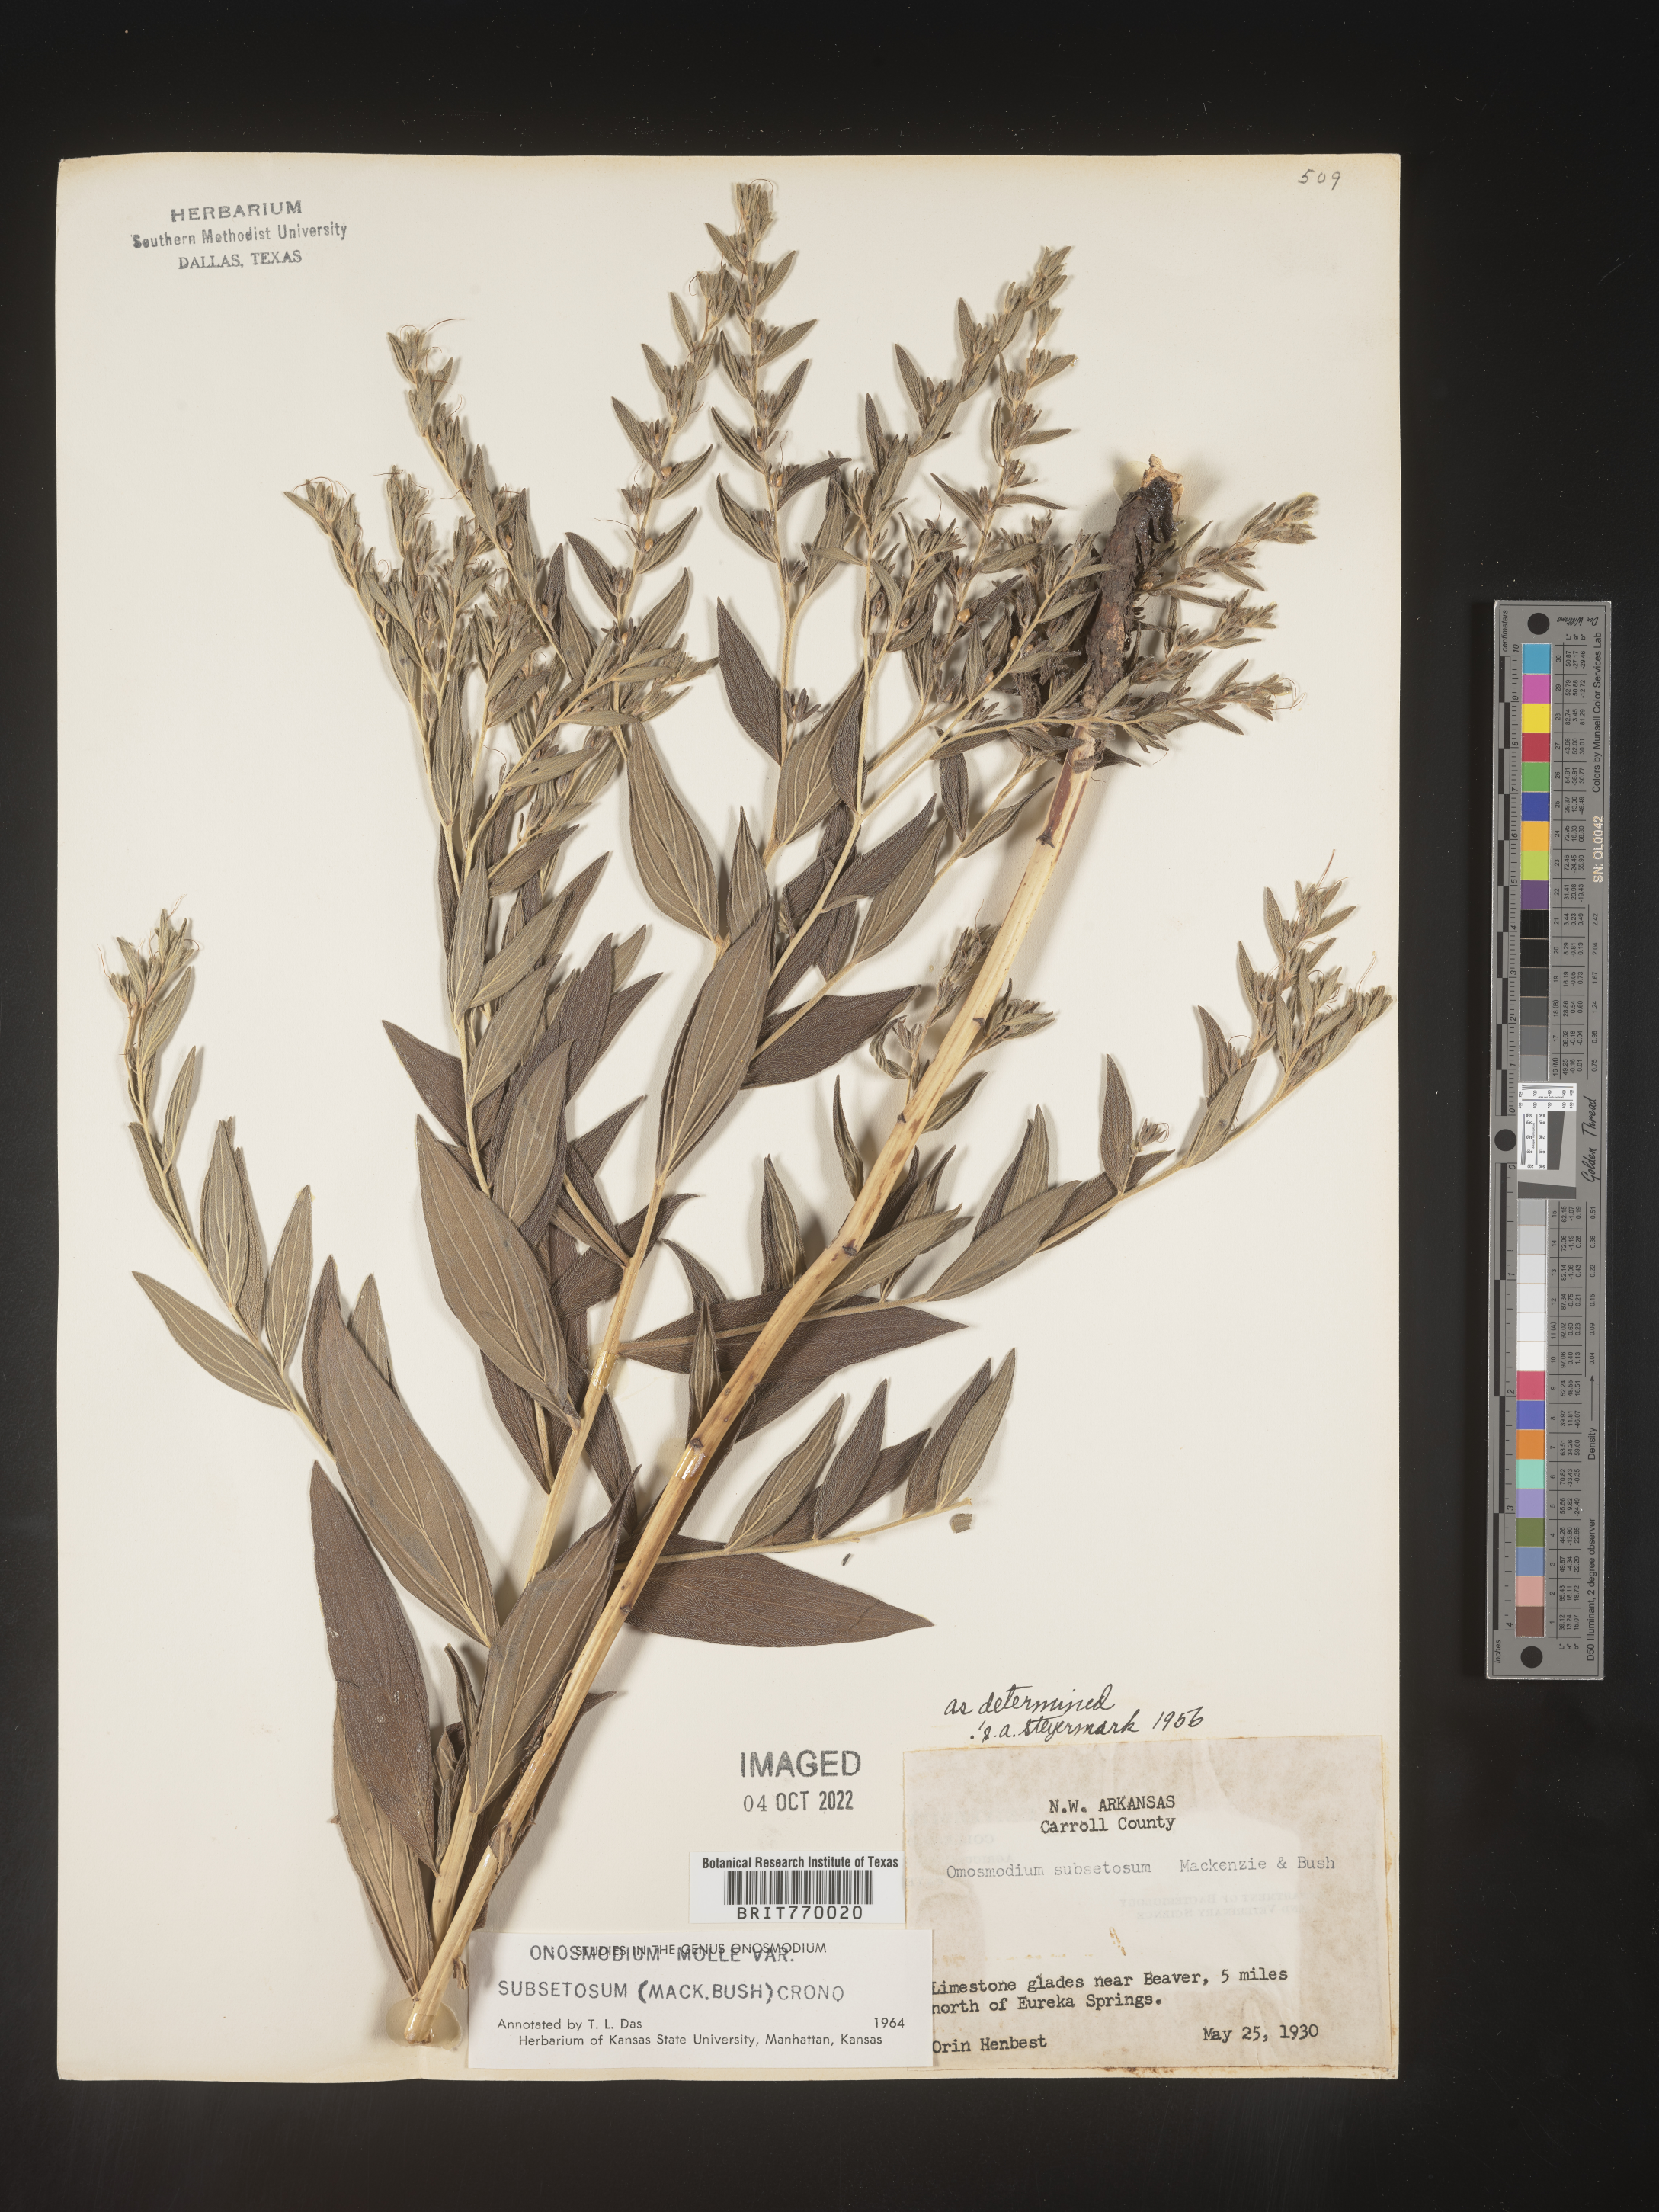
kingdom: Plantae
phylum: Tracheophyta
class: Magnoliopsida
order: Boraginales
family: Boraginaceae
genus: Lithospermum
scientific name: Lithospermum subsetosum
